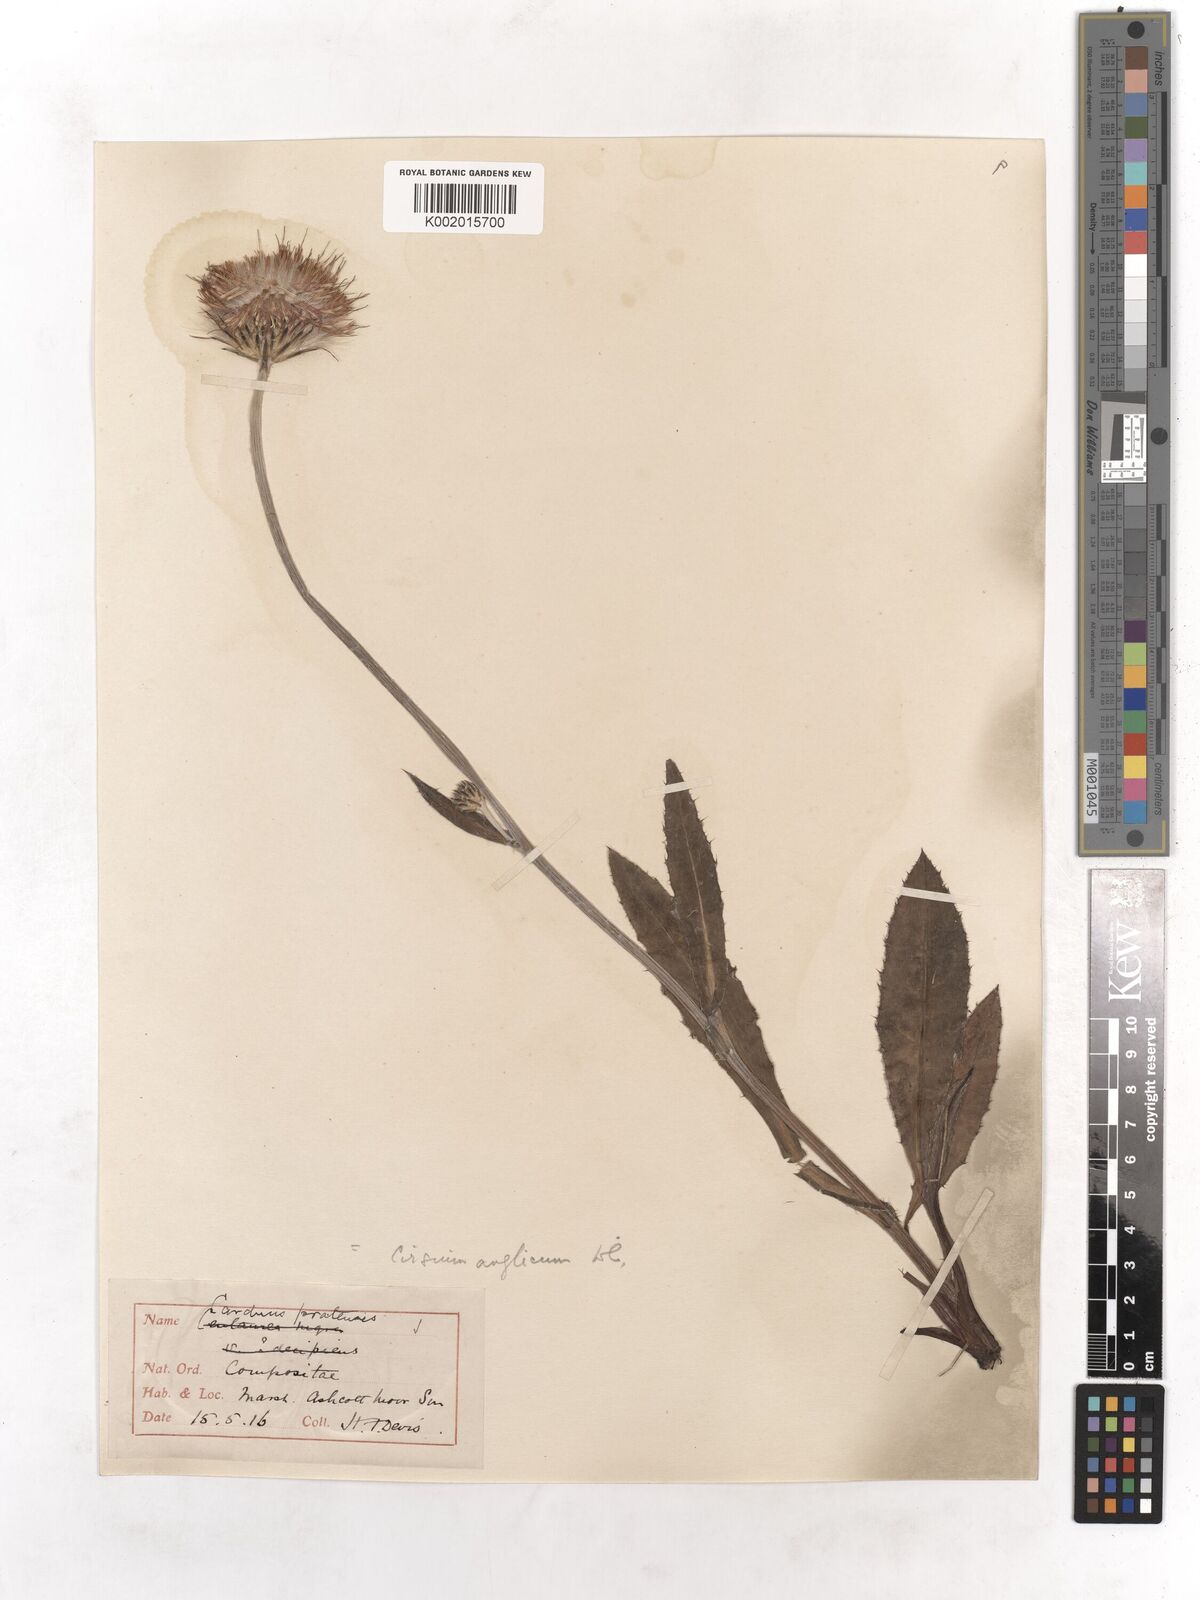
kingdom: Plantae
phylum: Tracheophyta
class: Magnoliopsida
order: Asterales
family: Asteraceae
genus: Cirsium
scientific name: Cirsium dissectum
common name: Meadow thistle
